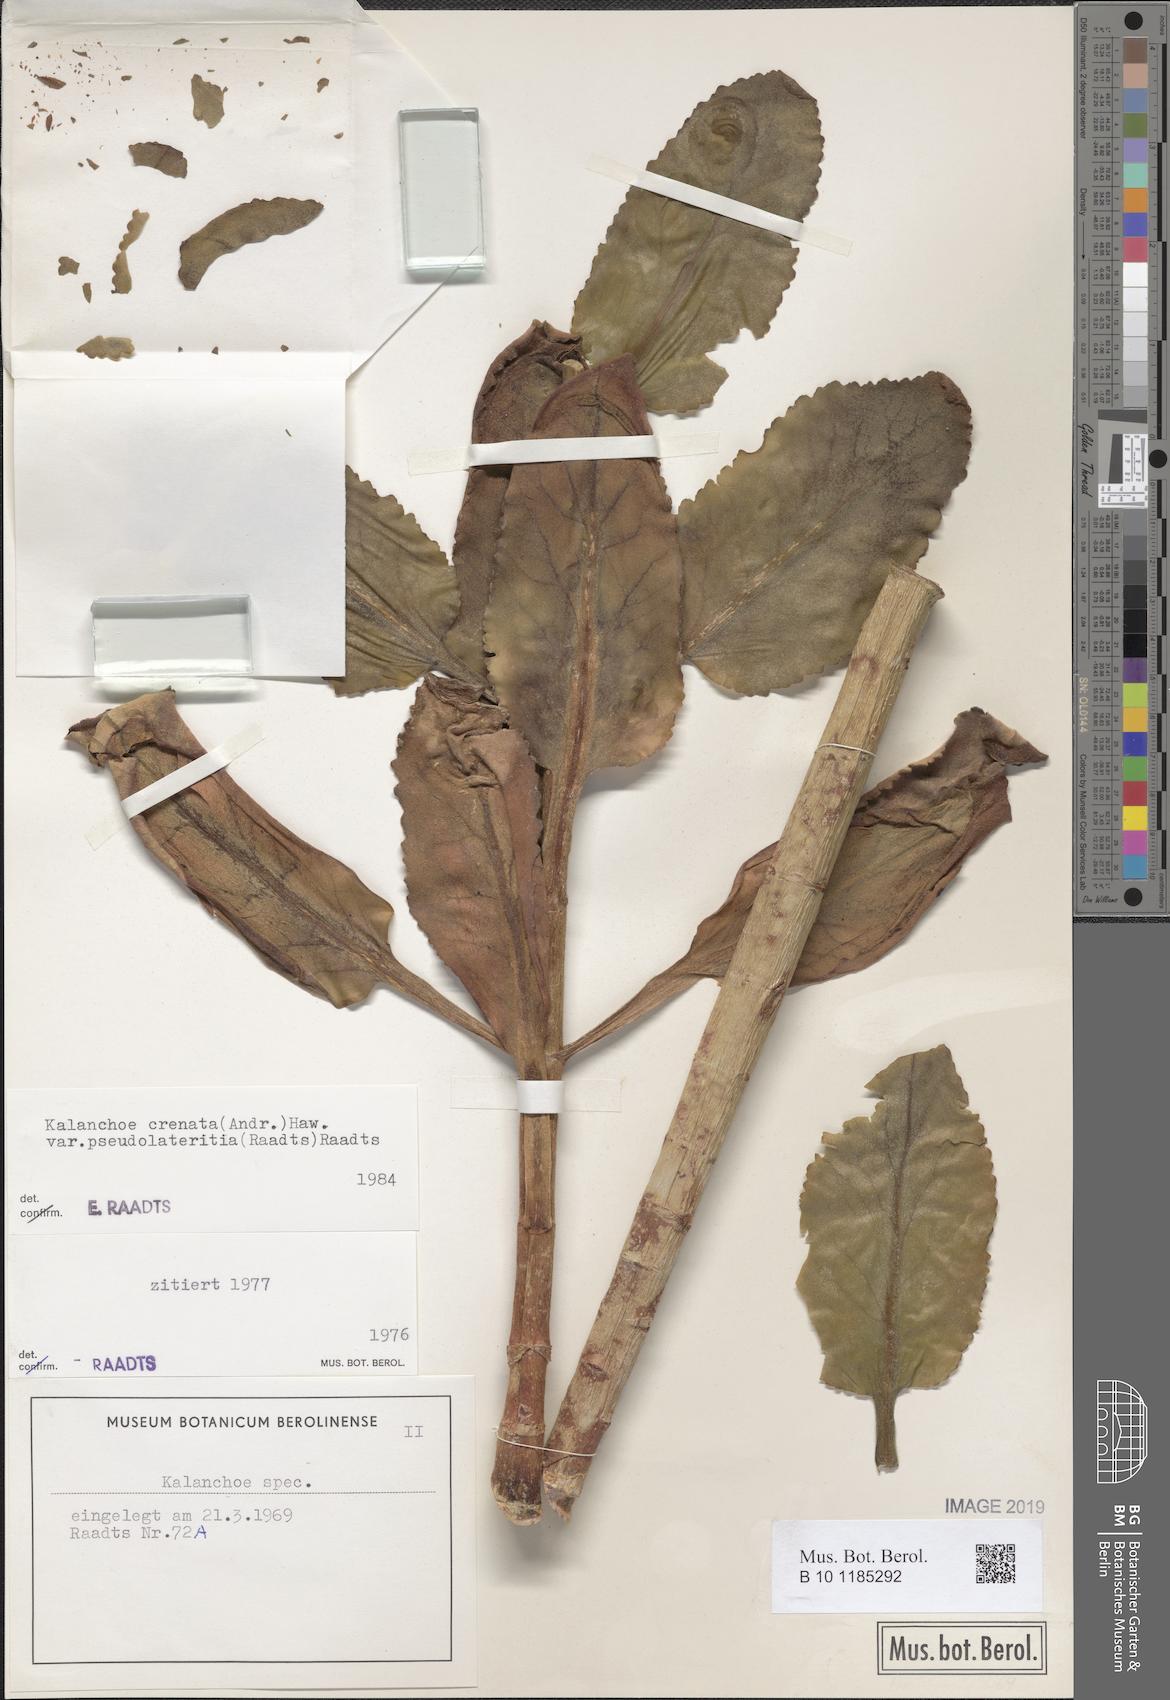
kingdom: Plantae
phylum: Tracheophyta
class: Magnoliopsida
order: Saxifragales
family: Crassulaceae
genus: Kalanchoe
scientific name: Kalanchoe lateritia
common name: Kalanchoe
